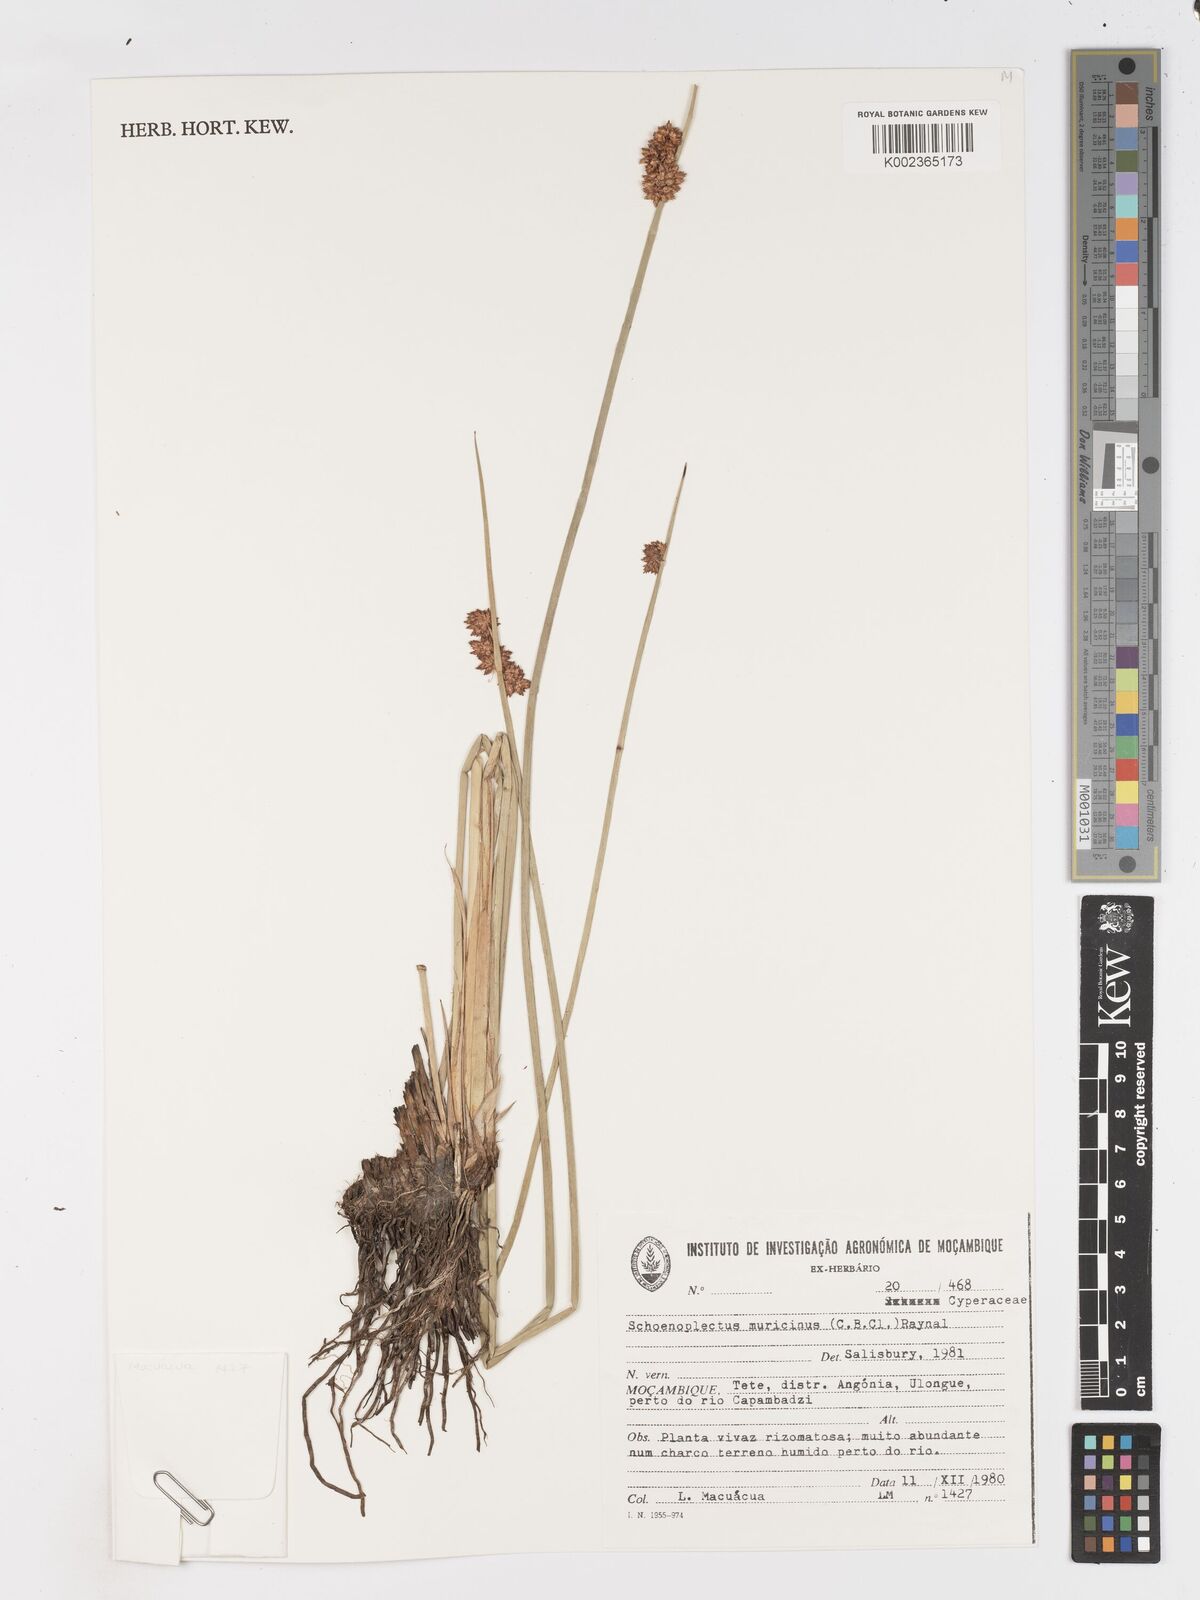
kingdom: Plantae
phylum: Tracheophyta
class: Liliopsida
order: Poales
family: Cyperaceae
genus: Schoenoplectiella
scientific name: Schoenoplectiella muricinux
